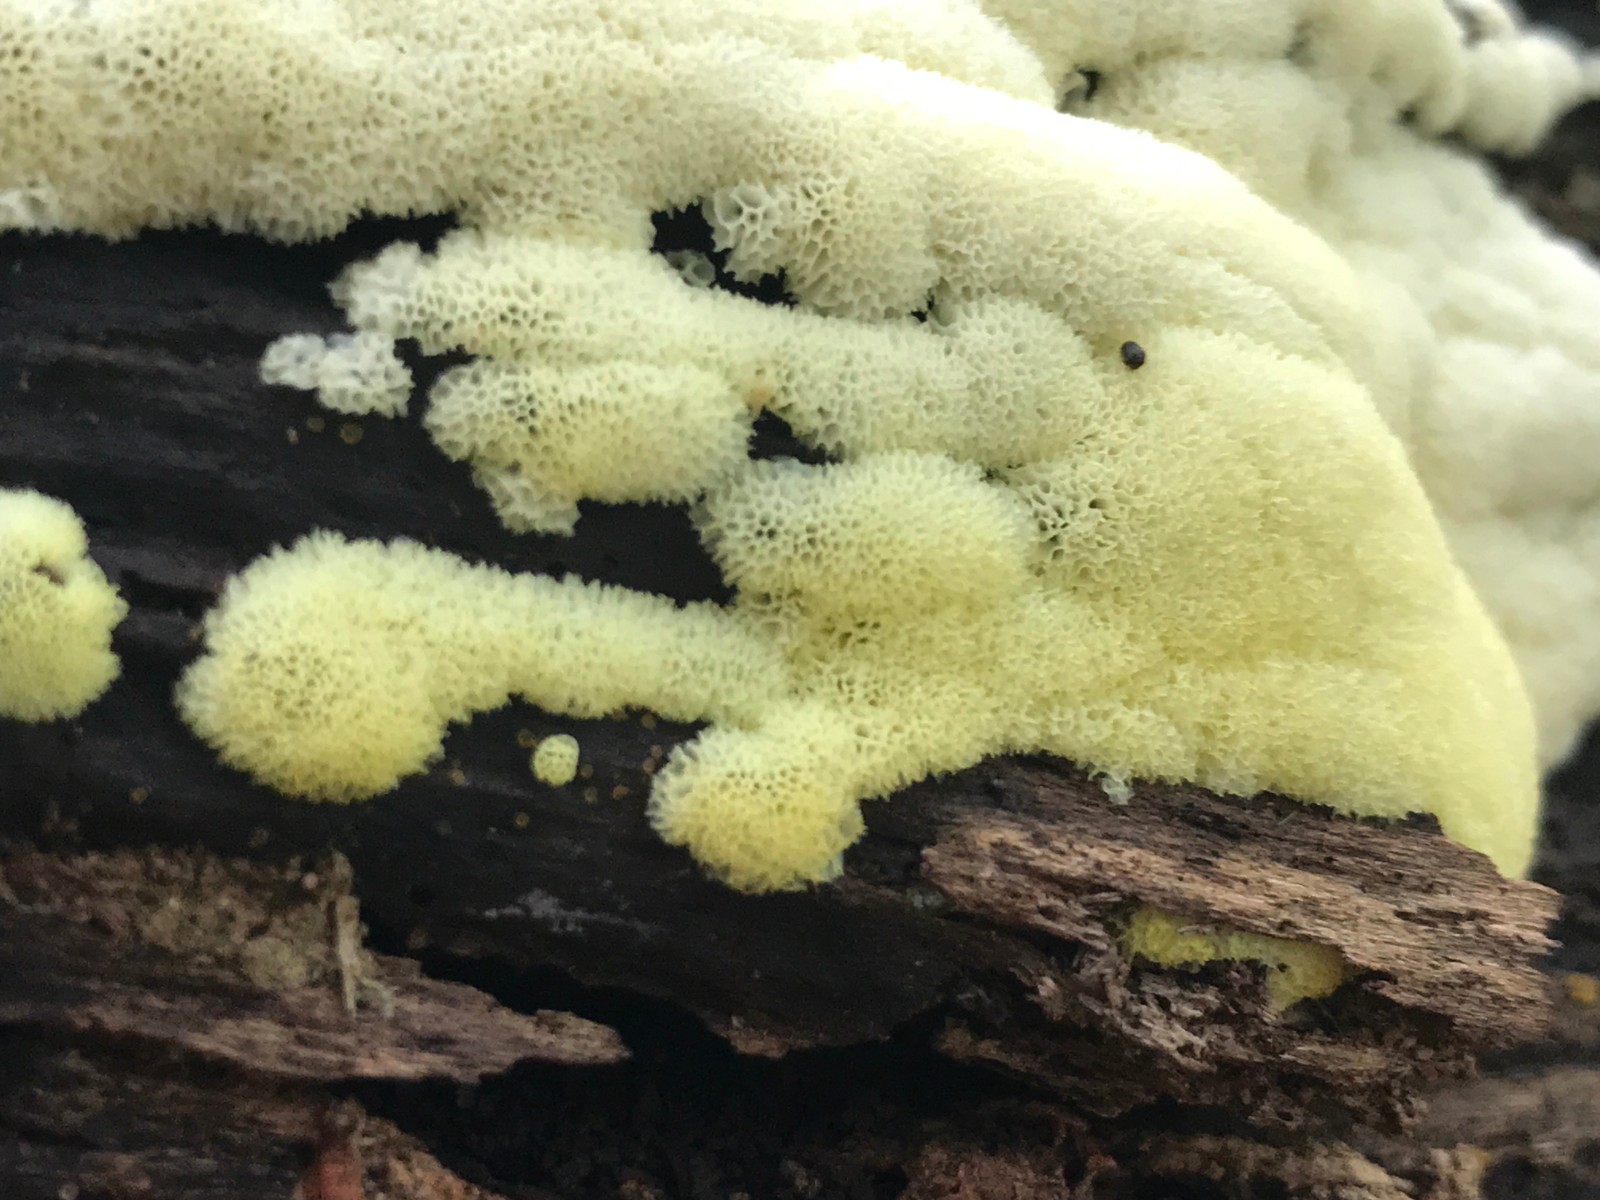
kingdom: Protozoa
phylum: Mycetozoa
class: Protosteliomycetes
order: Ceratiomyxales
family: Ceratiomyxaceae
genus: Ceratiomyxa
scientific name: Ceratiomyxa fruticulosa
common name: Honeycomb coral slime mold
